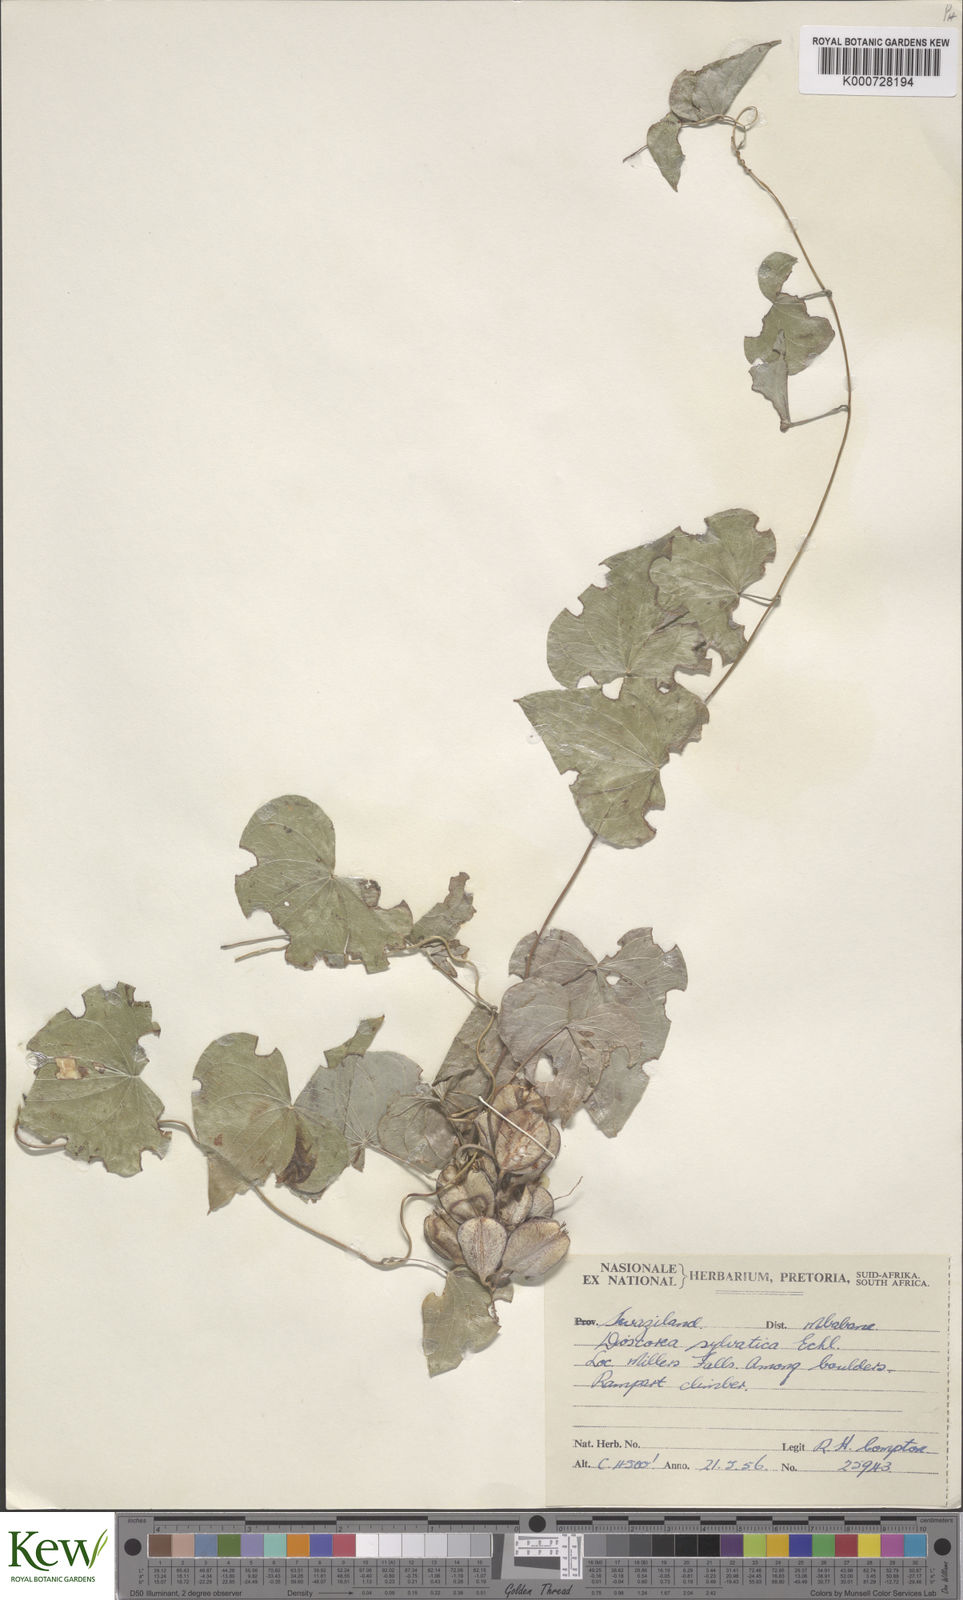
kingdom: Plantae
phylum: Tracheophyta
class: Liliopsida
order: Dioscoreales
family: Dioscoreaceae
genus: Dioscorea
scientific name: Dioscorea sylvatica
